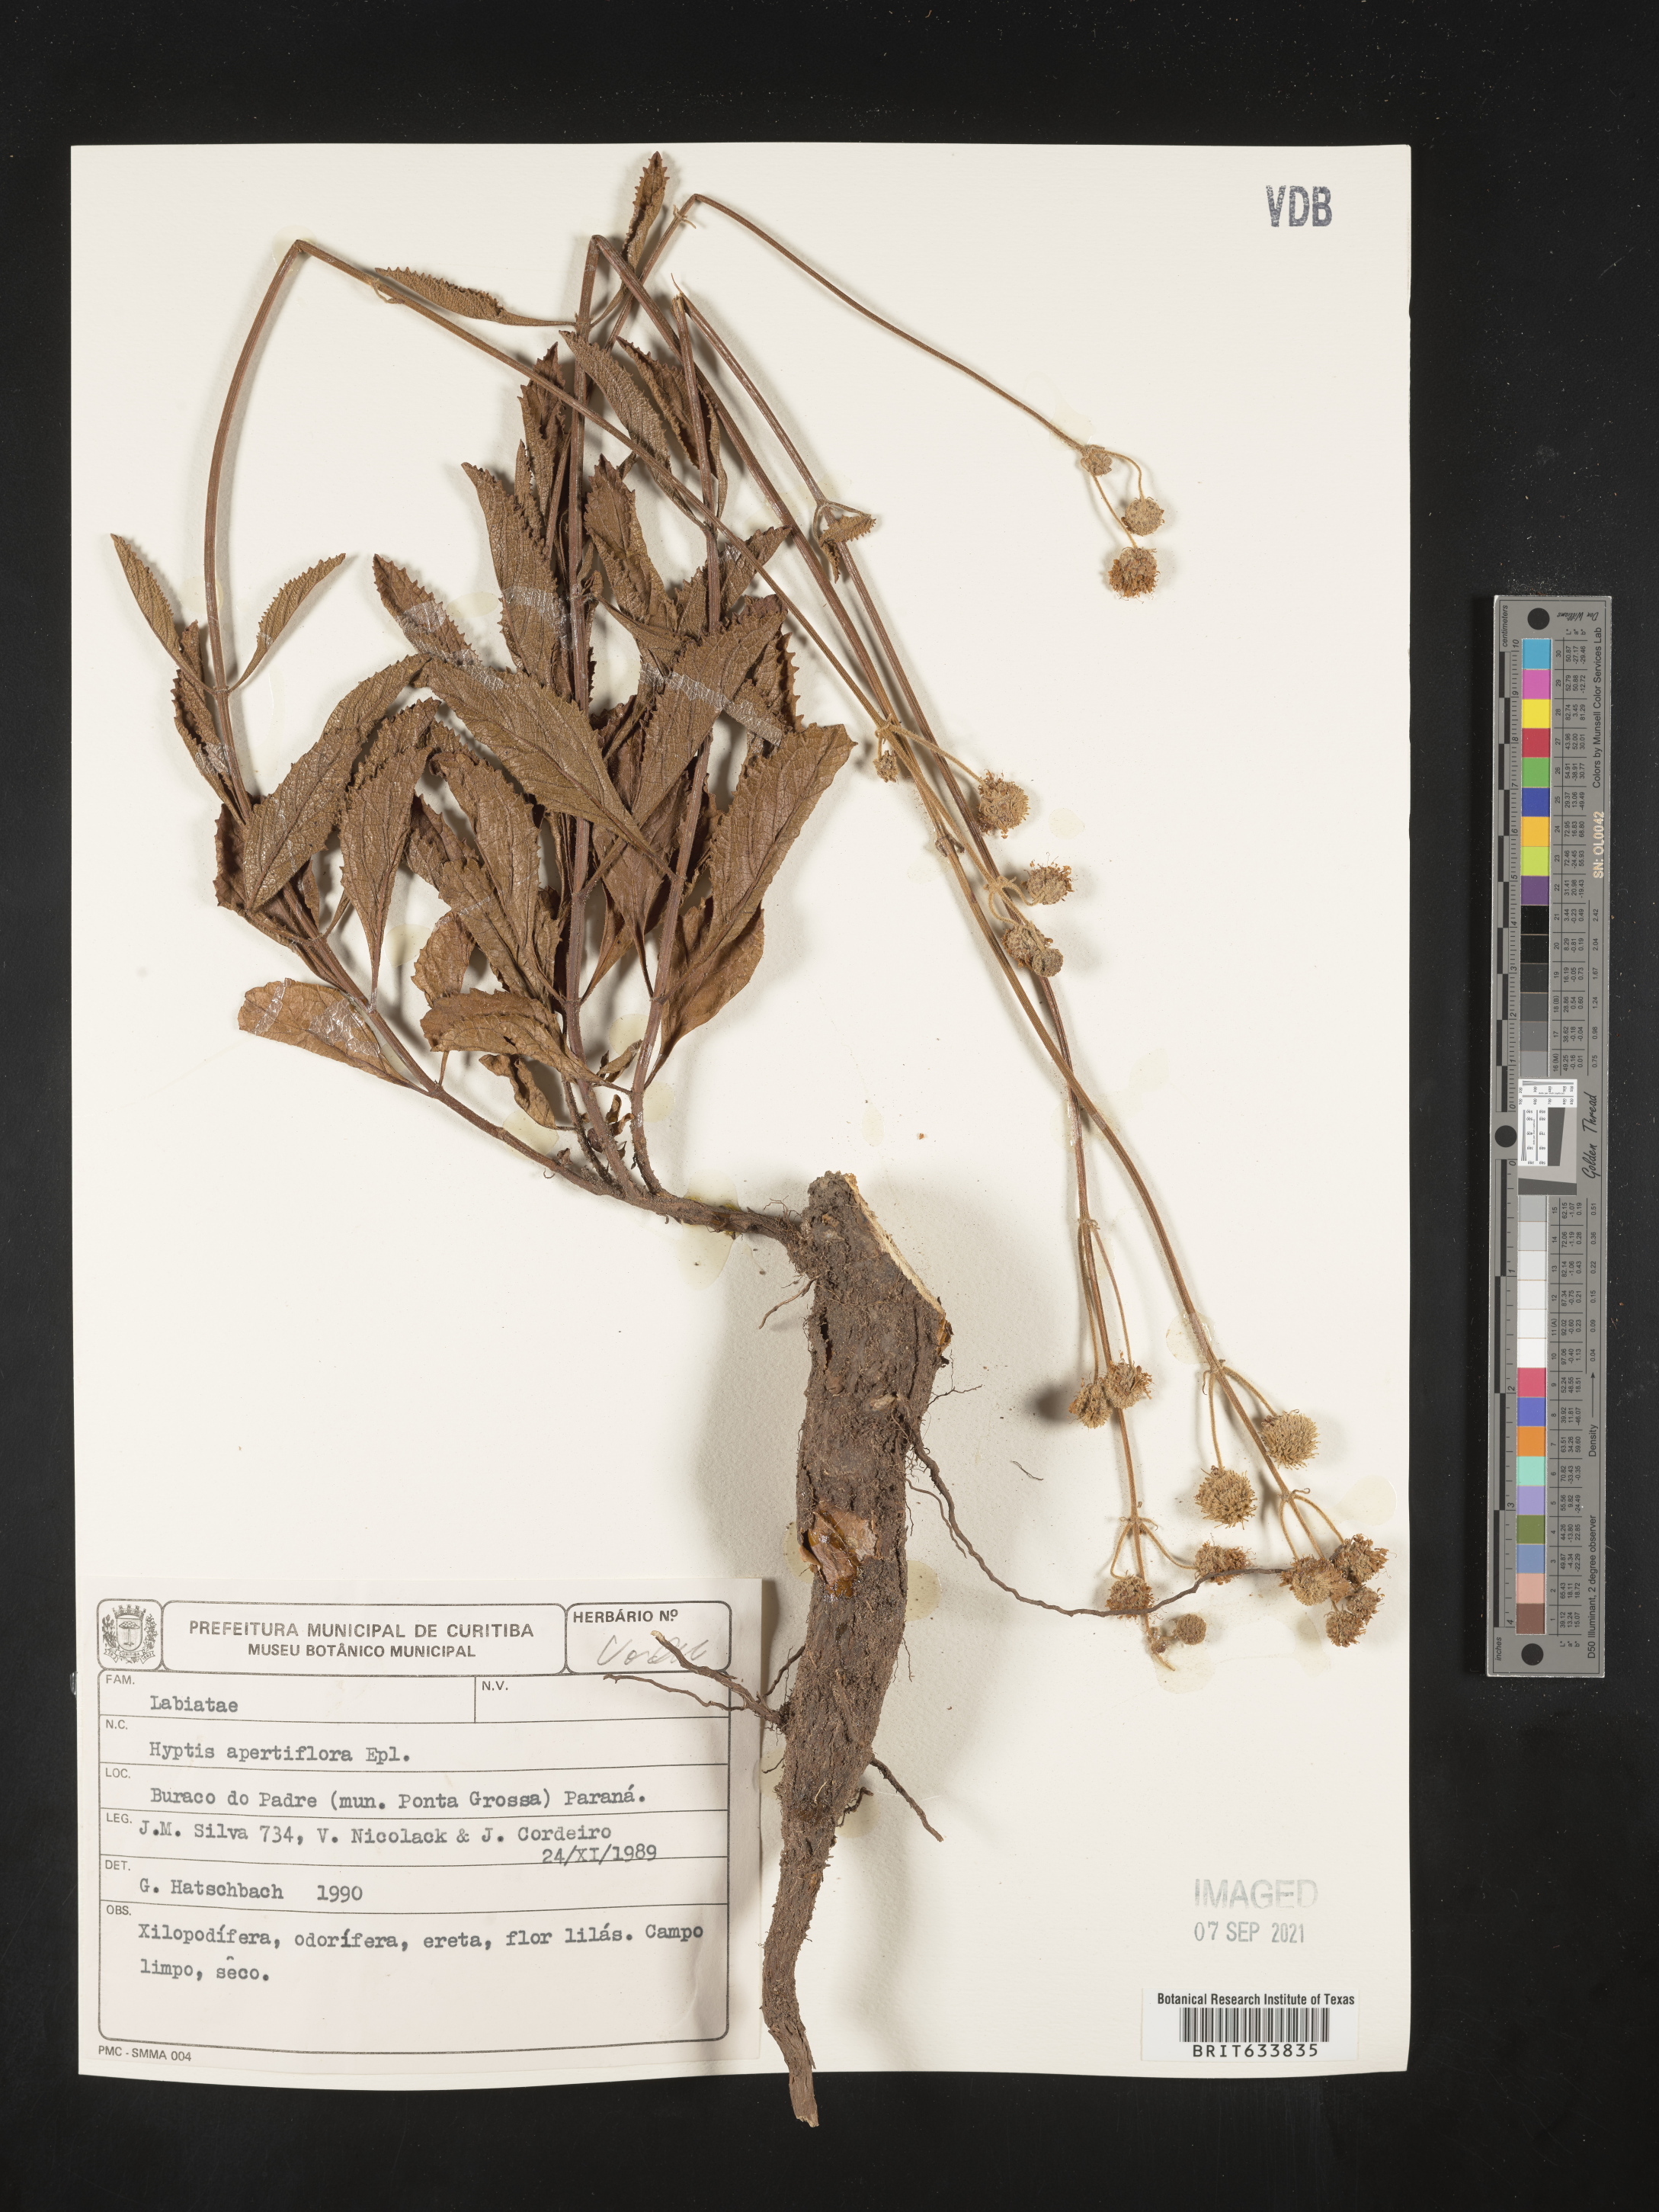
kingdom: Plantae
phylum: Tracheophyta
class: Magnoliopsida
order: Lamiales
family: Lamiaceae
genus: Hyptis
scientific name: Hyptis
